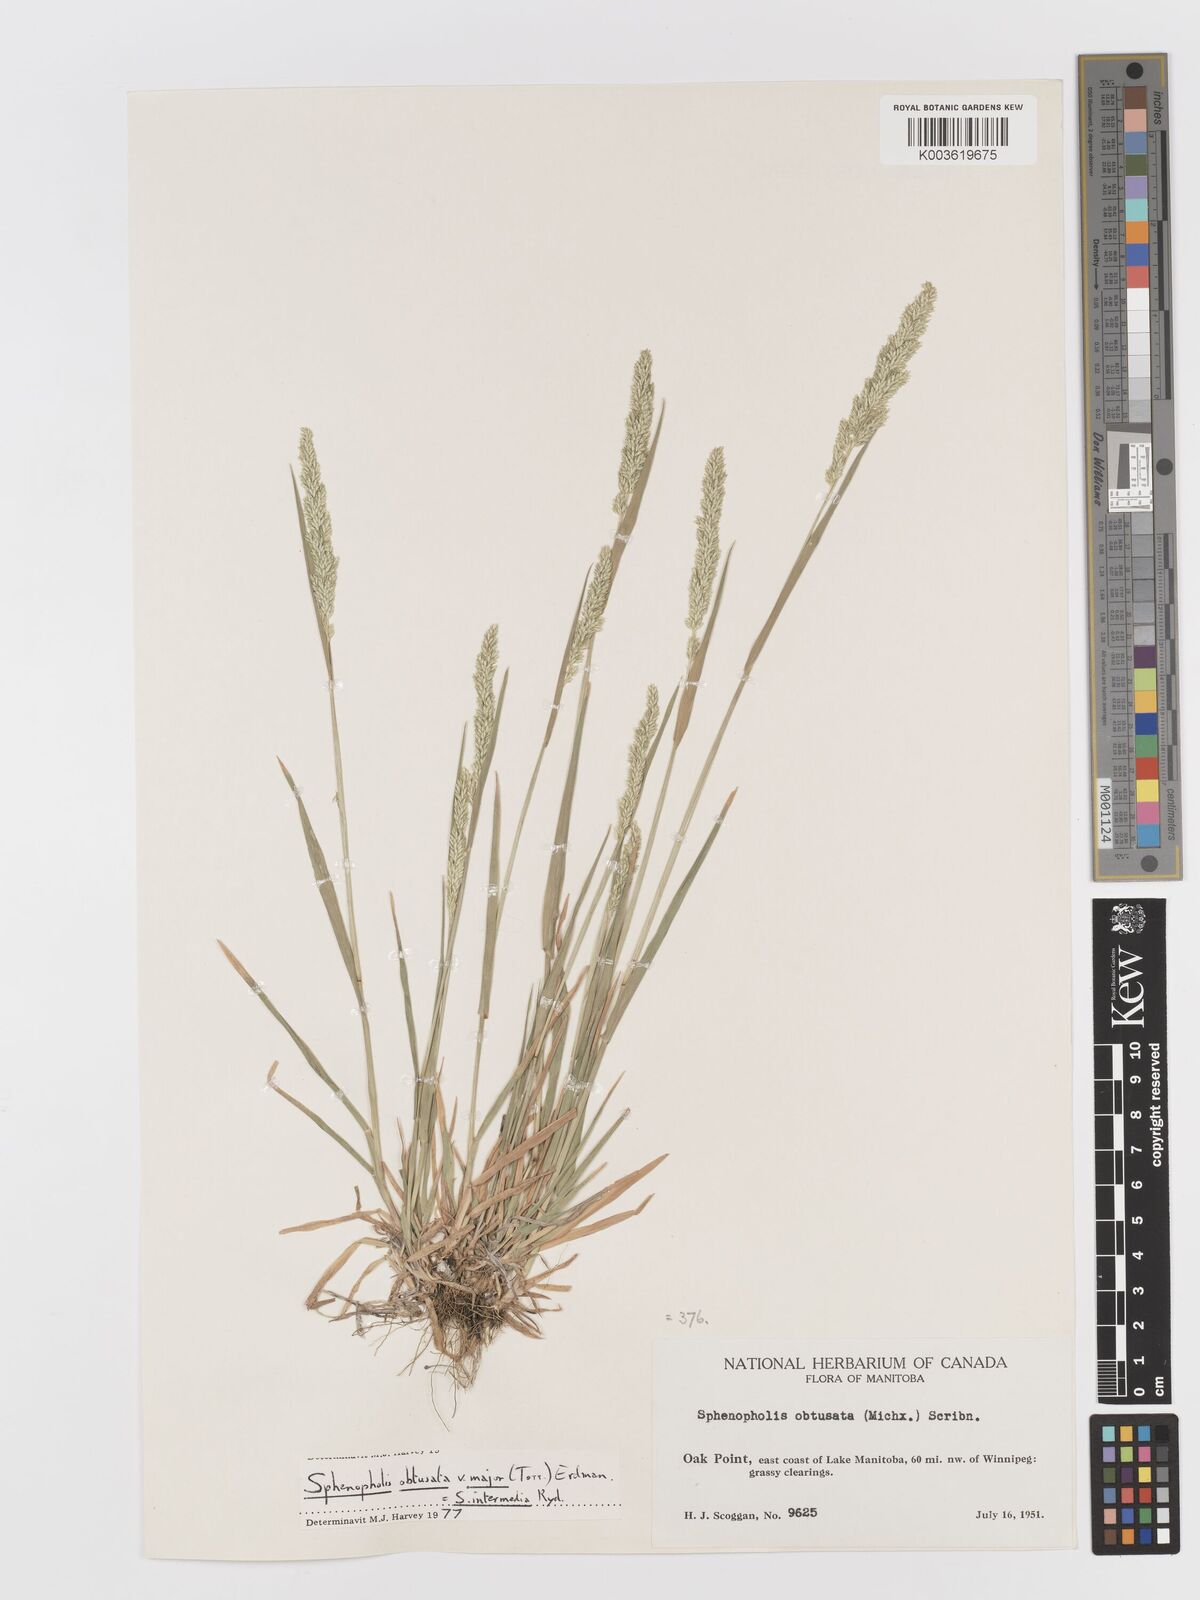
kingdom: Plantae
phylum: Tracheophyta
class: Liliopsida
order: Poales
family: Poaceae
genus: Sphenopholis
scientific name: Sphenopholis obtusata
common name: Prairie grass
